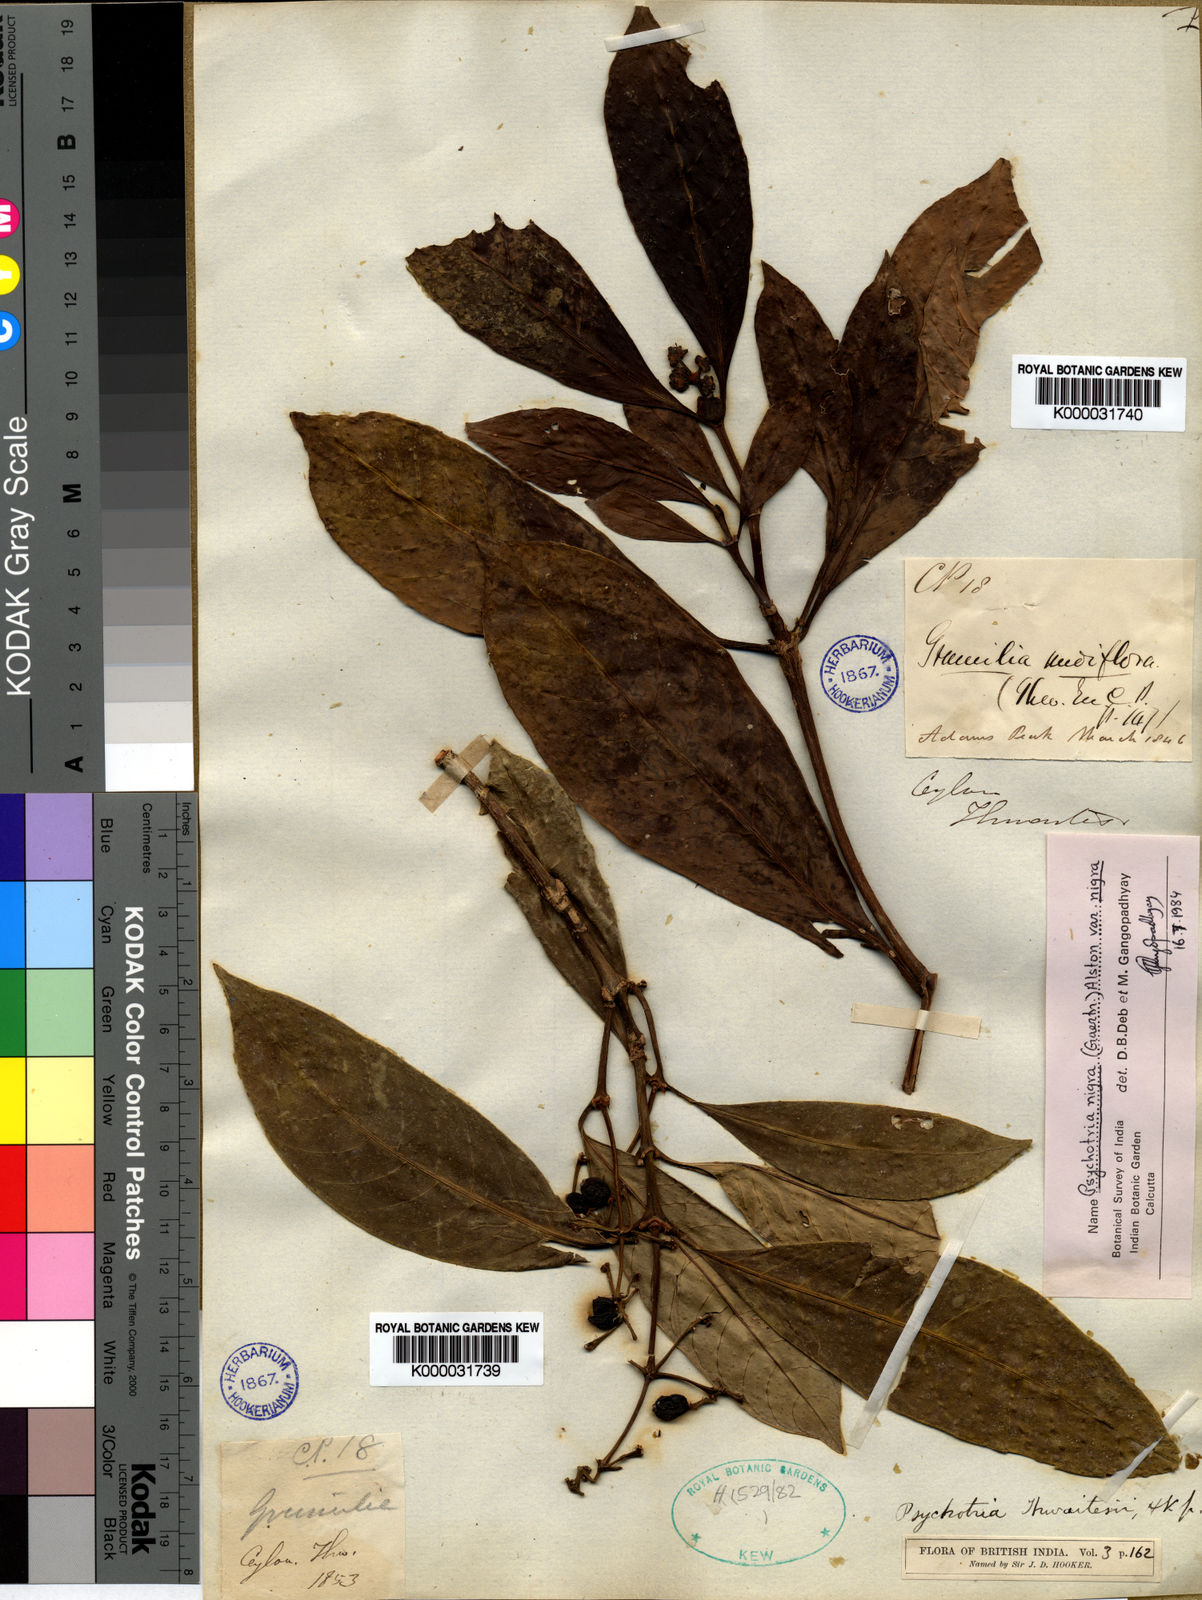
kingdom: Plantae
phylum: Tracheophyta
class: Magnoliopsida
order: Gentianales
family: Rubiaceae
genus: Psychotria
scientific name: Psychotria nigra
